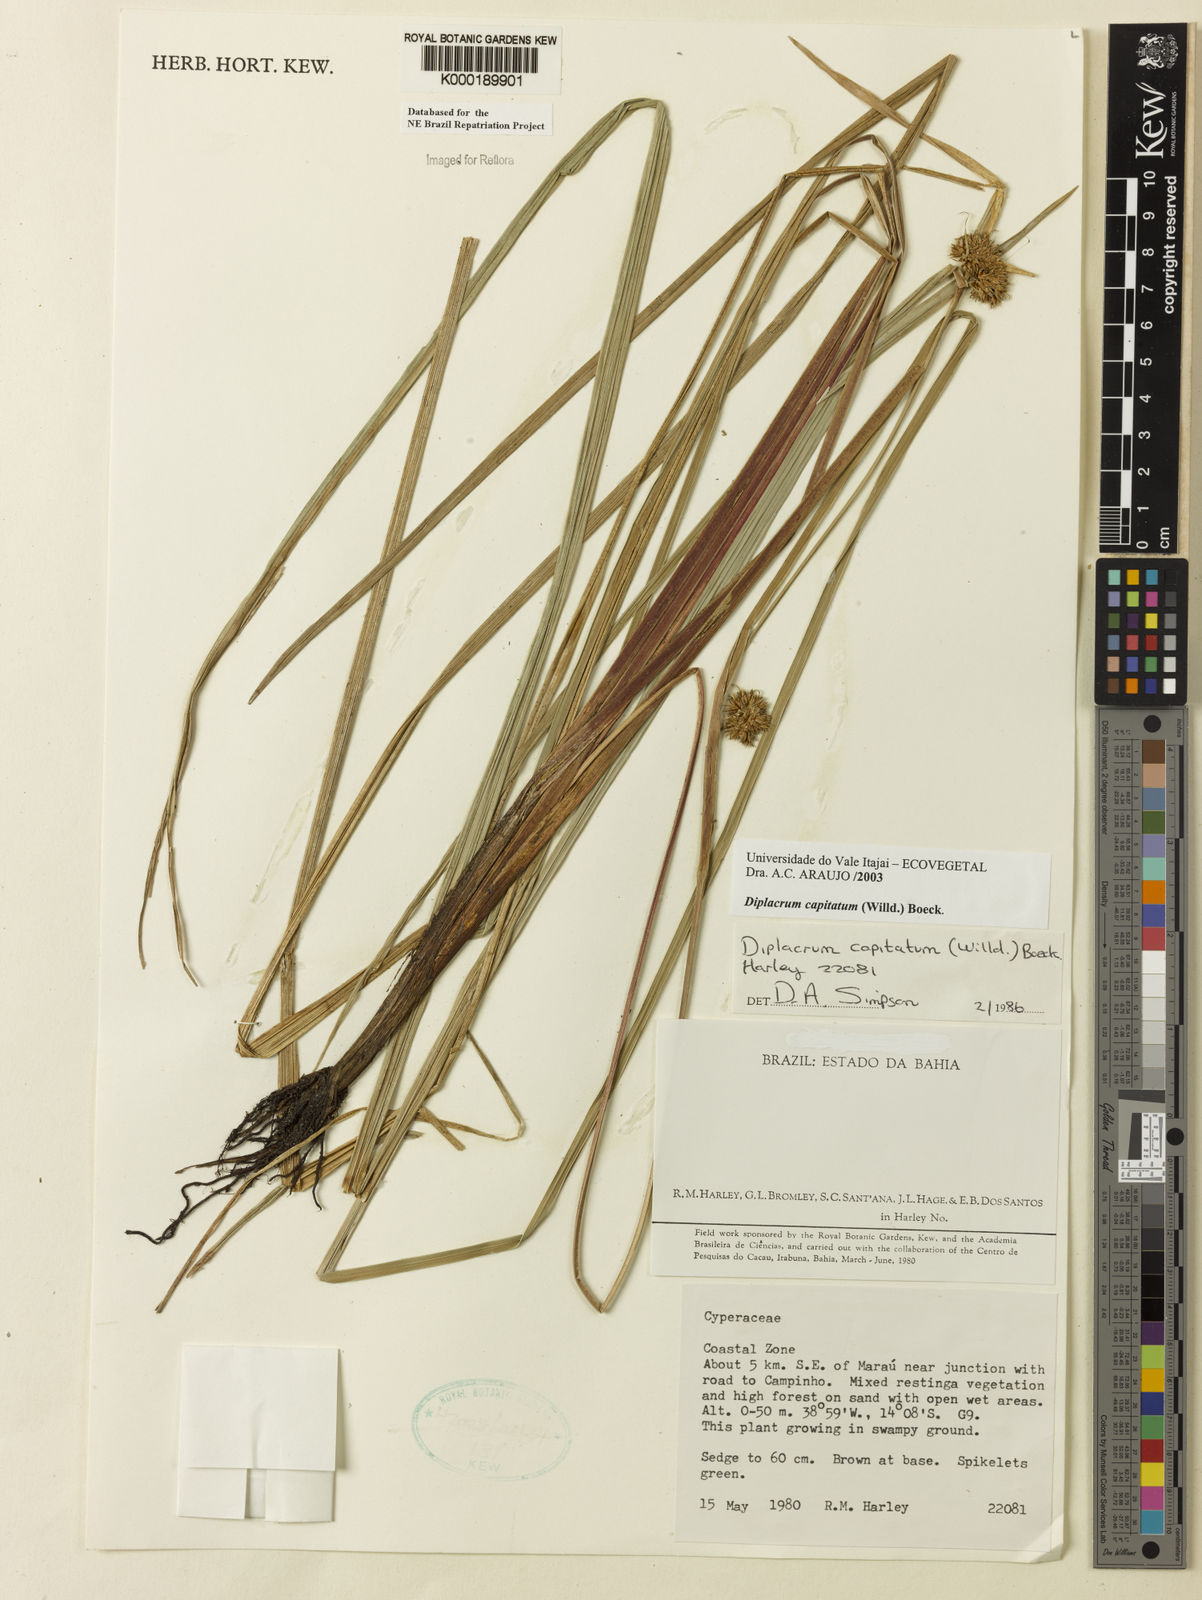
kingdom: Plantae
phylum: Tracheophyta
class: Liliopsida
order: Poales
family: Cyperaceae
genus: Diplacrum
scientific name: Diplacrum capitatum
